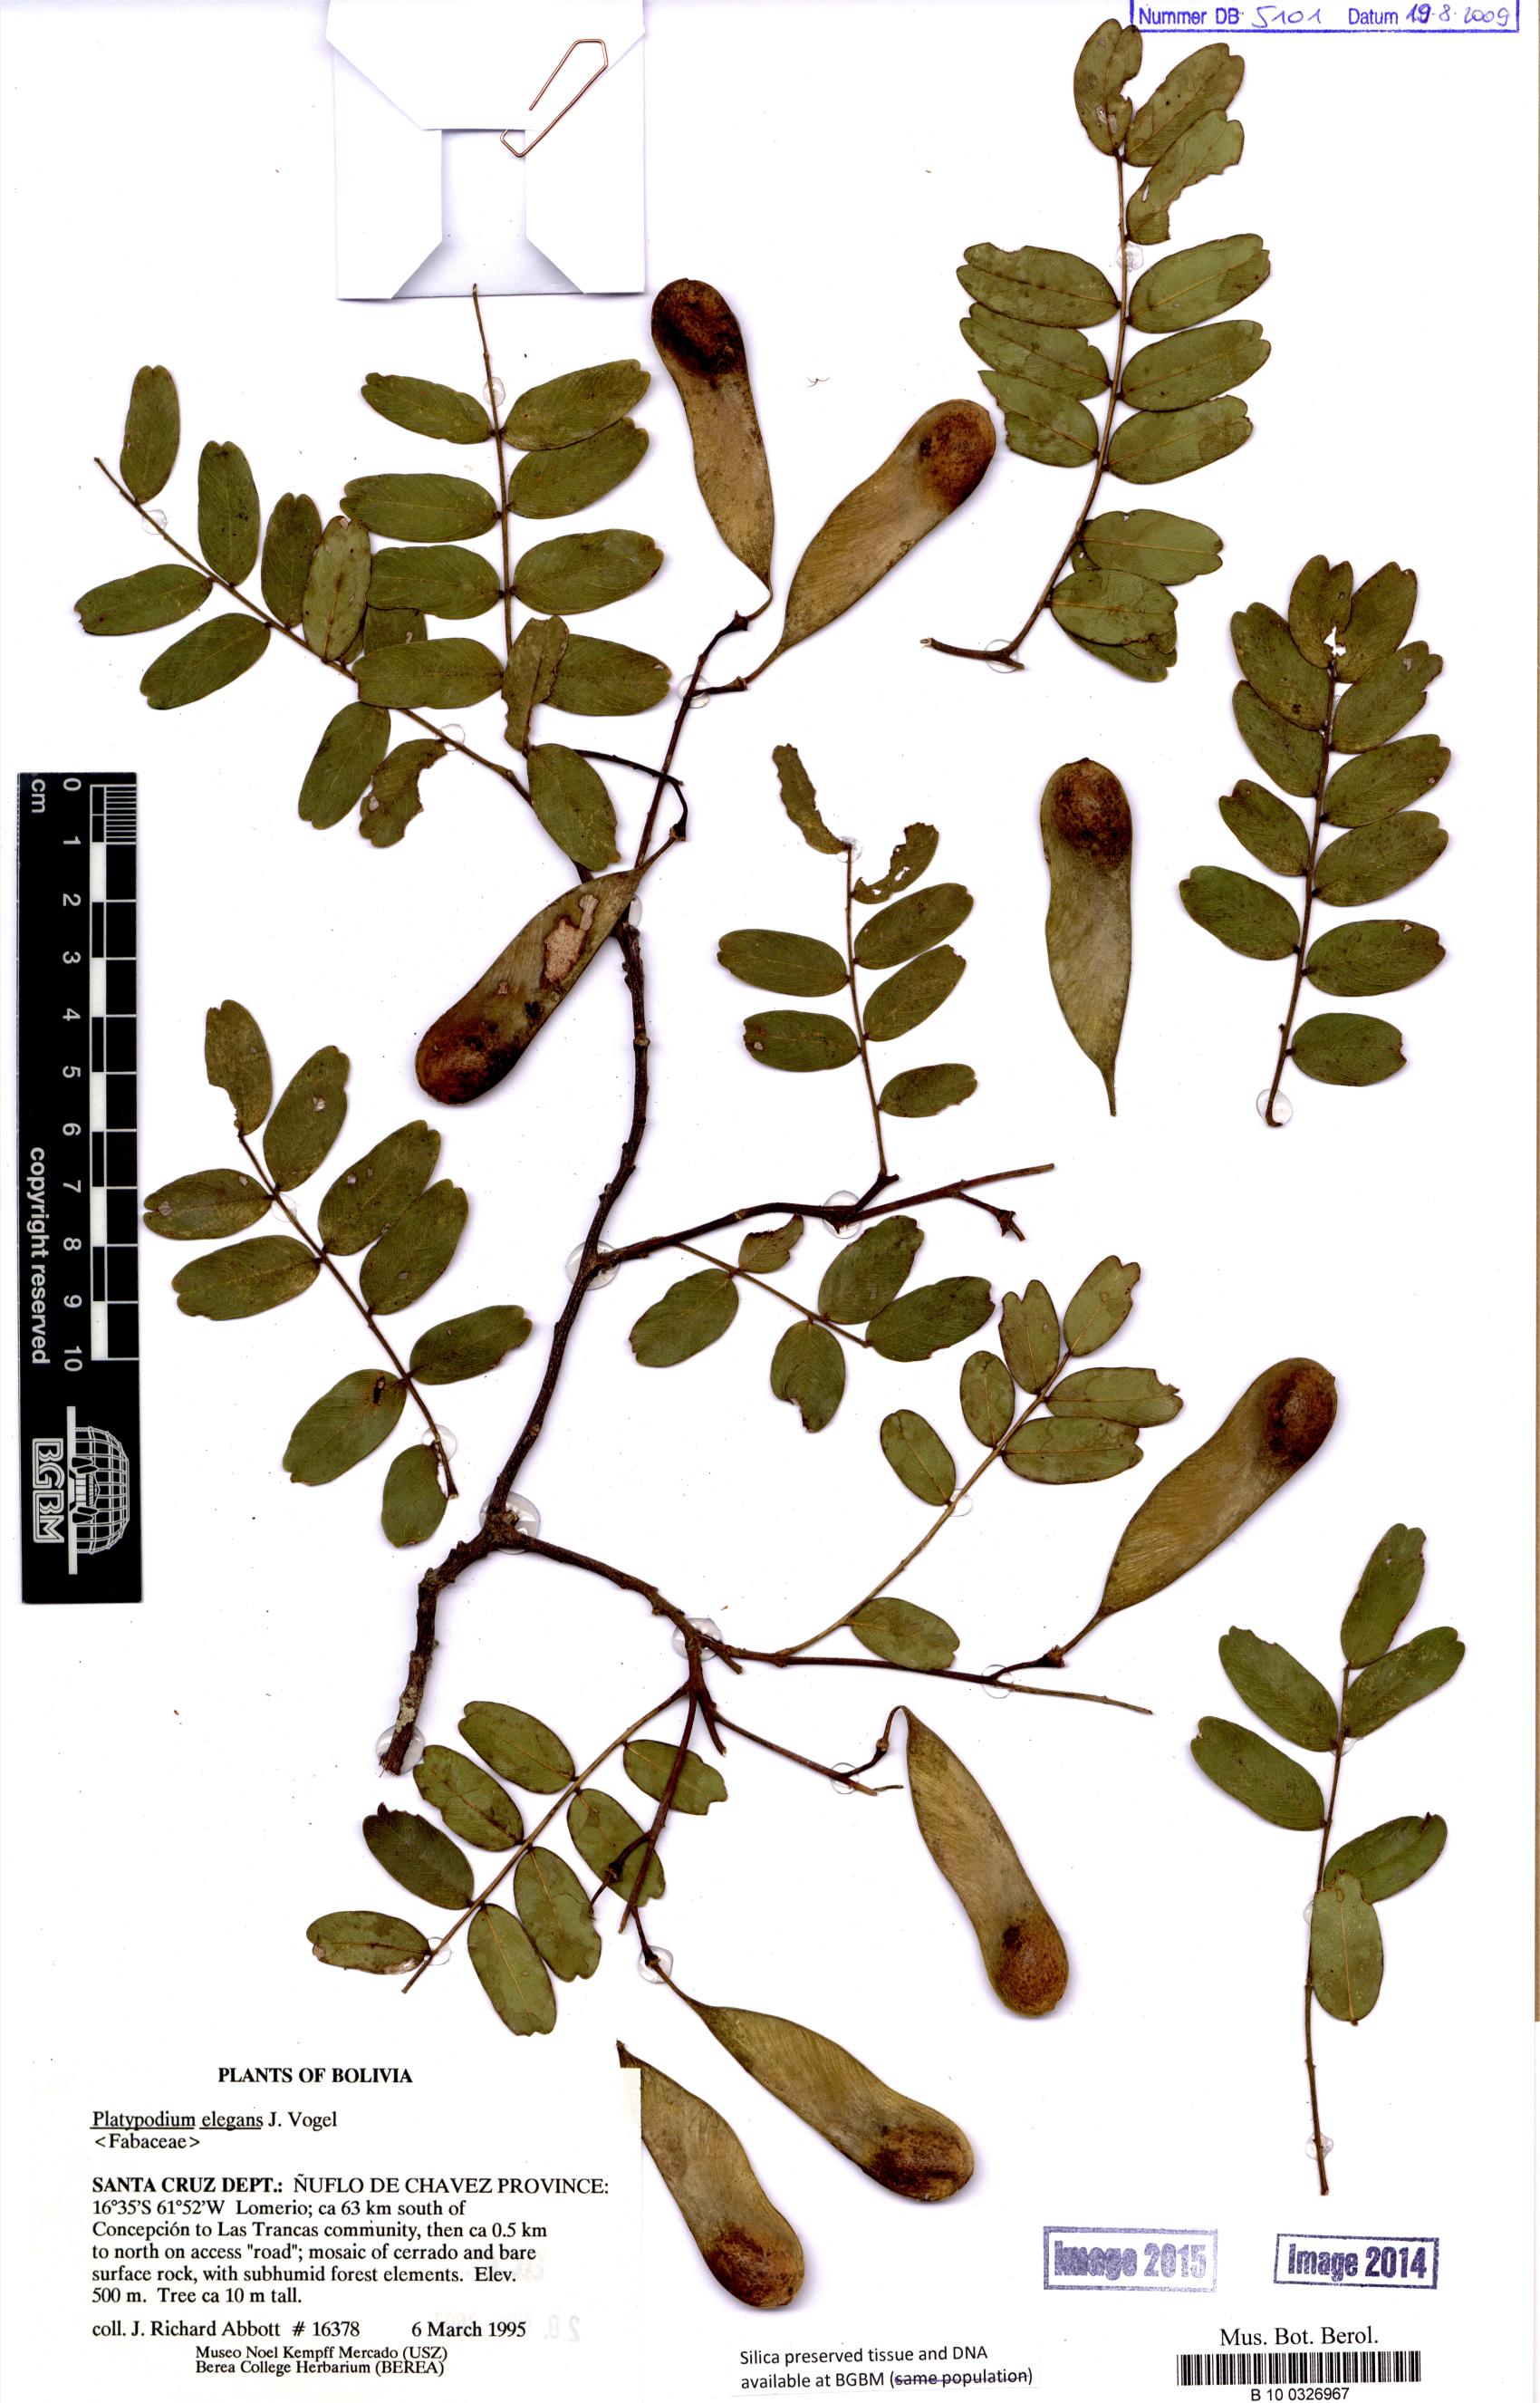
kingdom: Plantae
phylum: Tracheophyta
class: Magnoliopsida
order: Fabales
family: Fabaceae
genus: Platypodium
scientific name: Platypodium elegans
